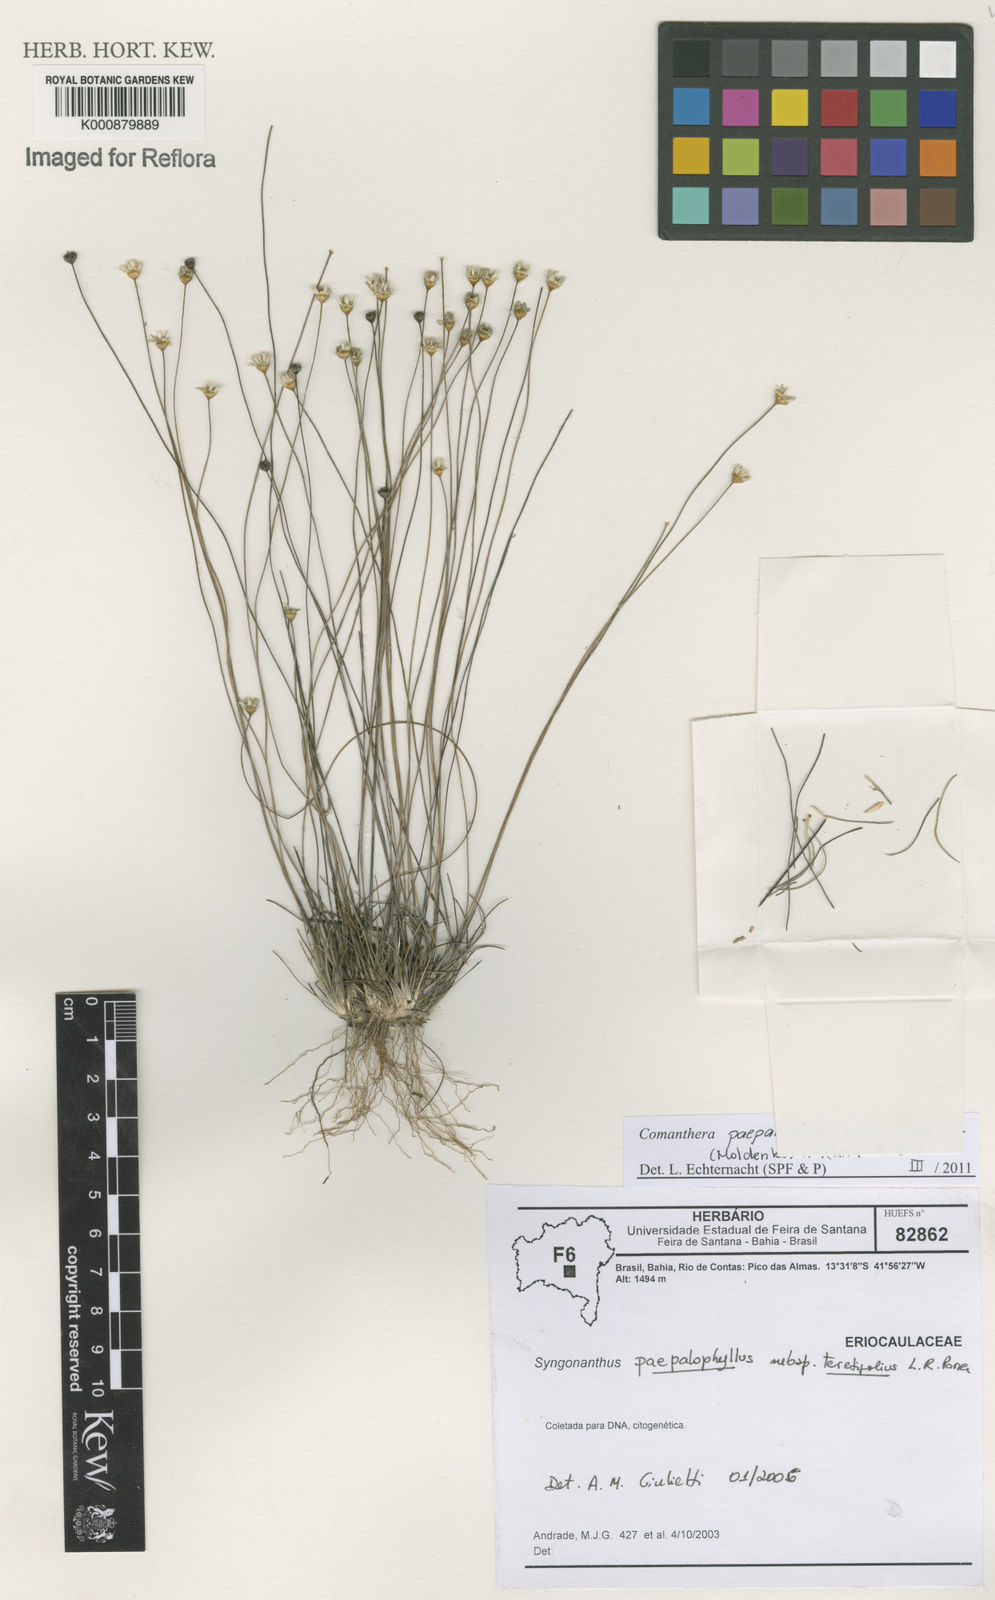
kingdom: Plantae
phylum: Tracheophyta
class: Liliopsida
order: Poales
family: Eriocaulaceae
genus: Comanthera
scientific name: Comanthera paepalophylla
